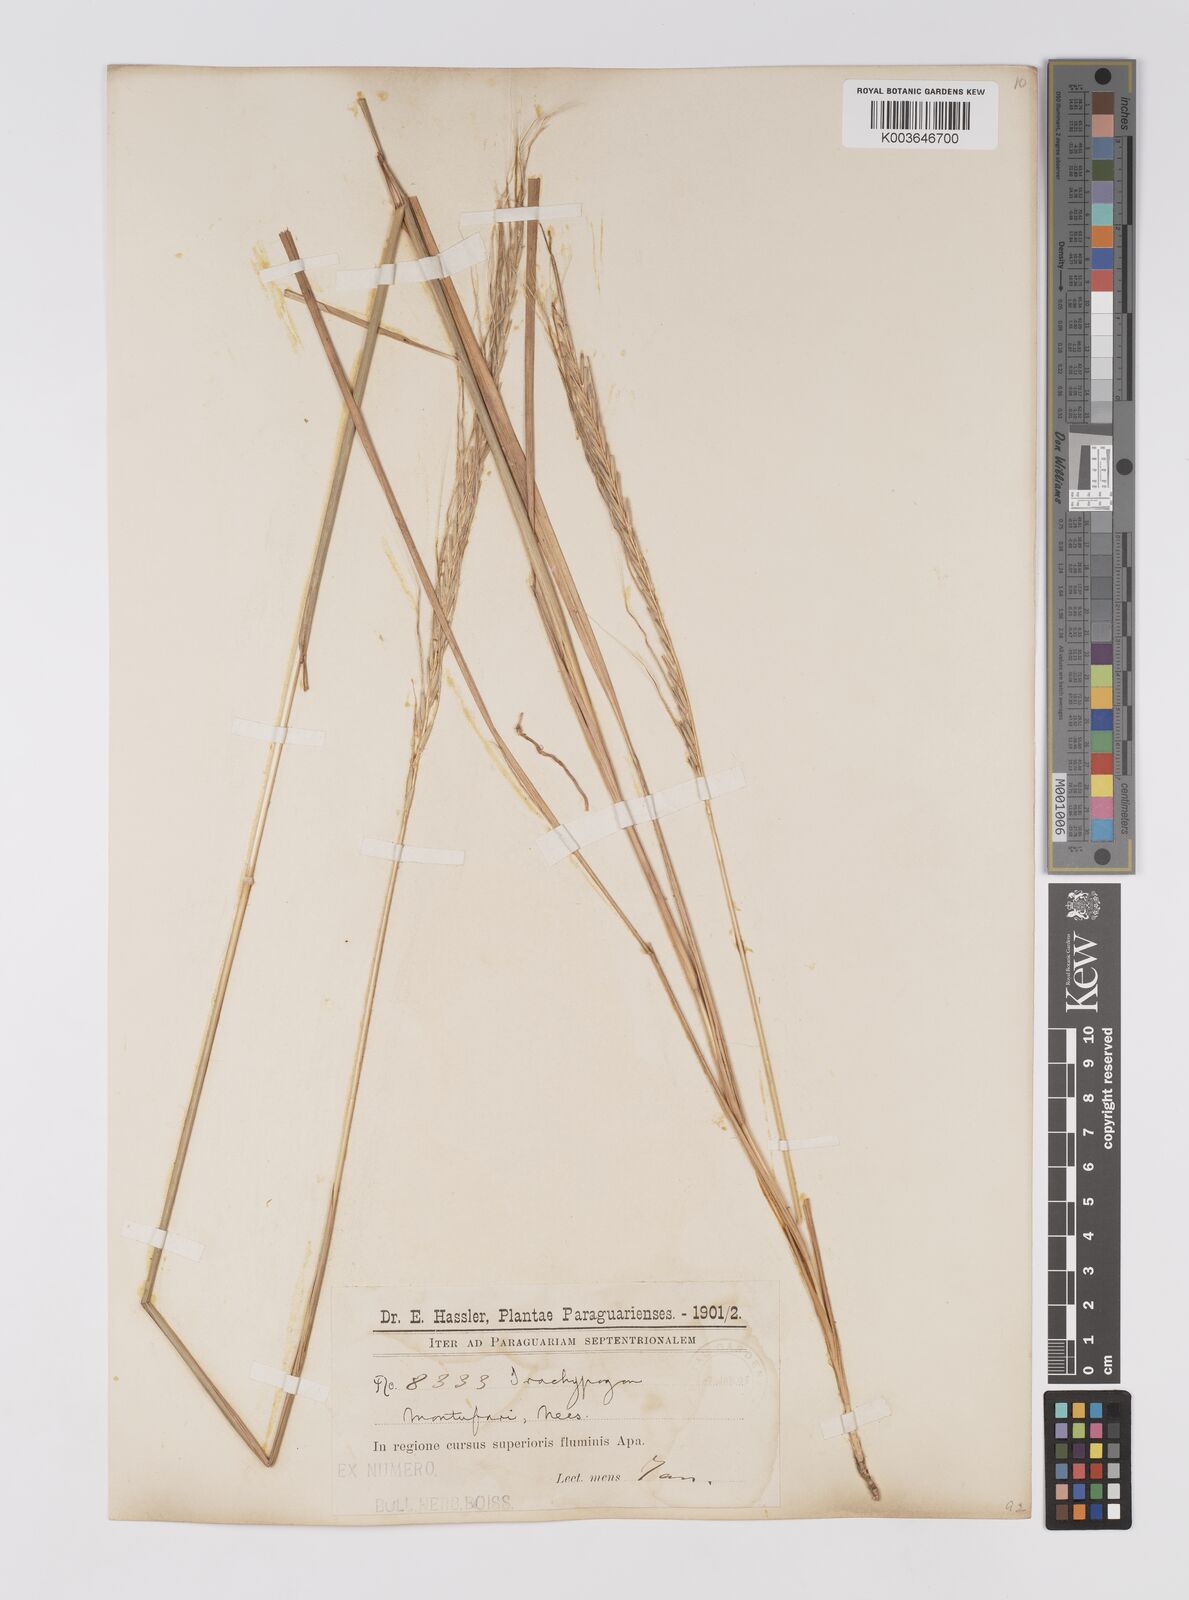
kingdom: Plantae
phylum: Tracheophyta
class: Liliopsida
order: Poales
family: Poaceae
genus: Trachypogon
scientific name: Trachypogon spicatus
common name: Crinkle-awn
